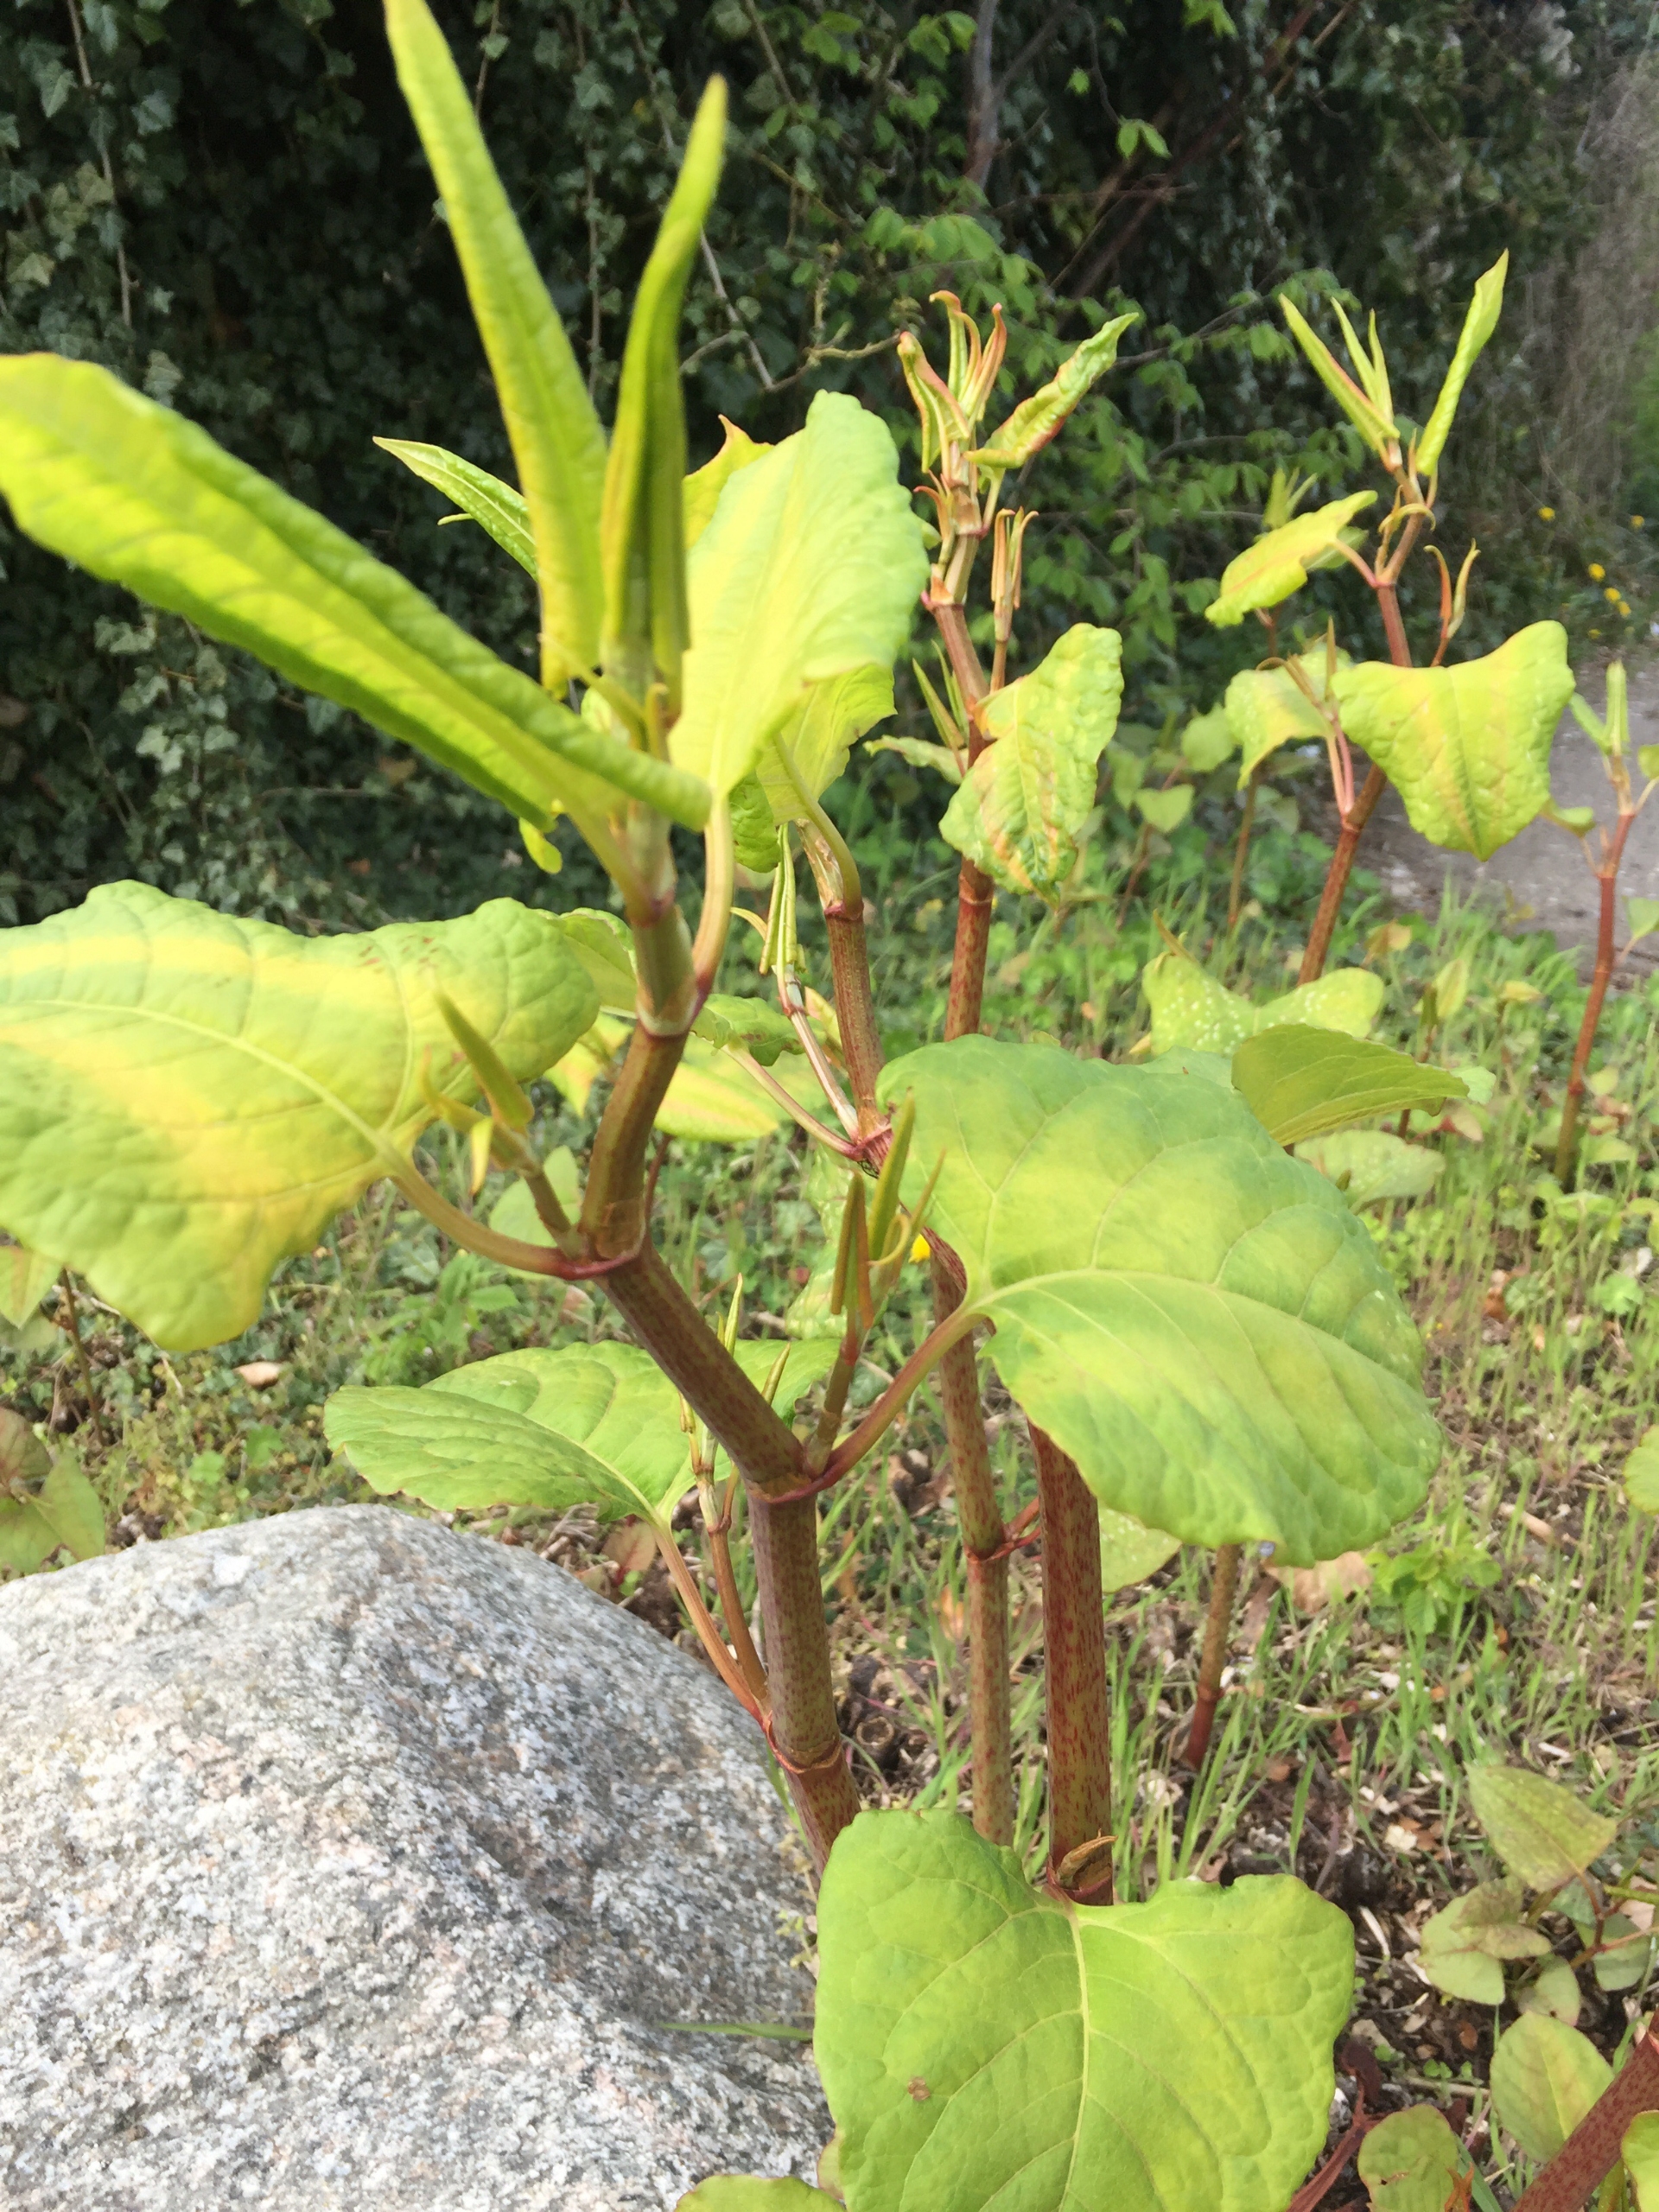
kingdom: Plantae
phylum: Tracheophyta
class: Magnoliopsida
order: Caryophyllales
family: Polygonaceae
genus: Reynoutria
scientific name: Reynoutria japonica
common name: Japan-pileurt
